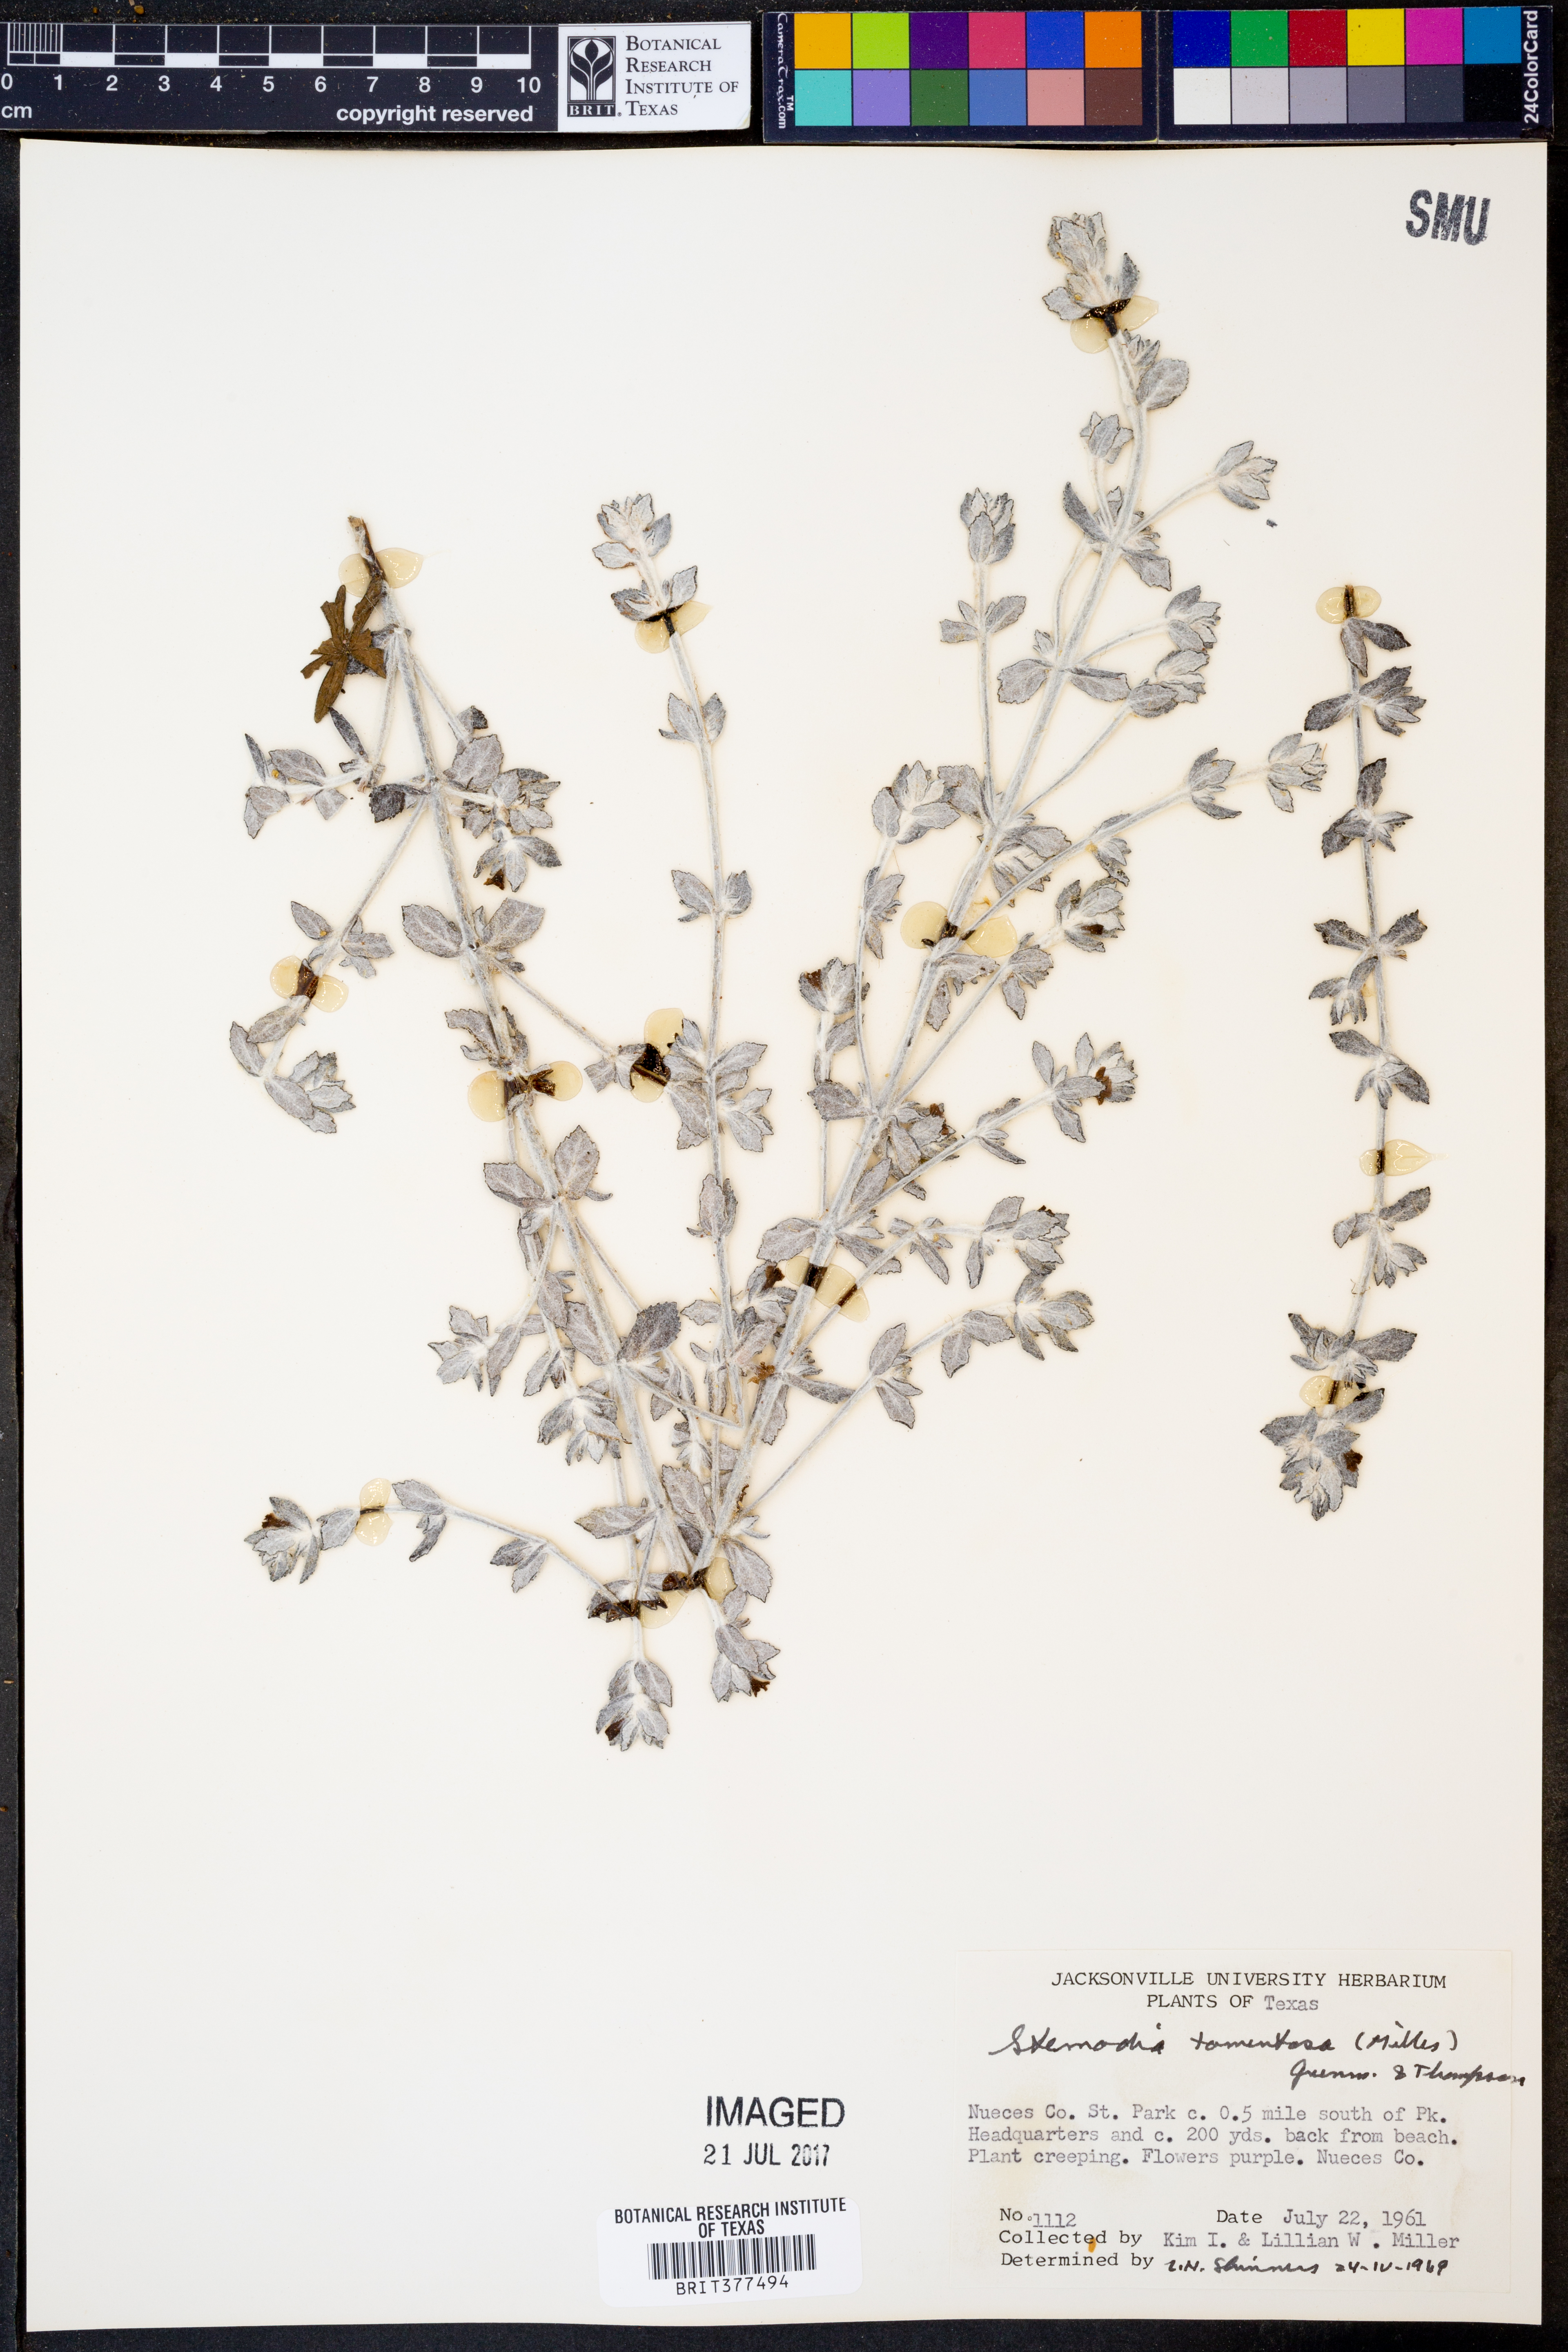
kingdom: Plantae
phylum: Tracheophyta
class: Magnoliopsida
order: Lamiales
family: Plantaginaceae
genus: Stemodia
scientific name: Stemodia lanata
